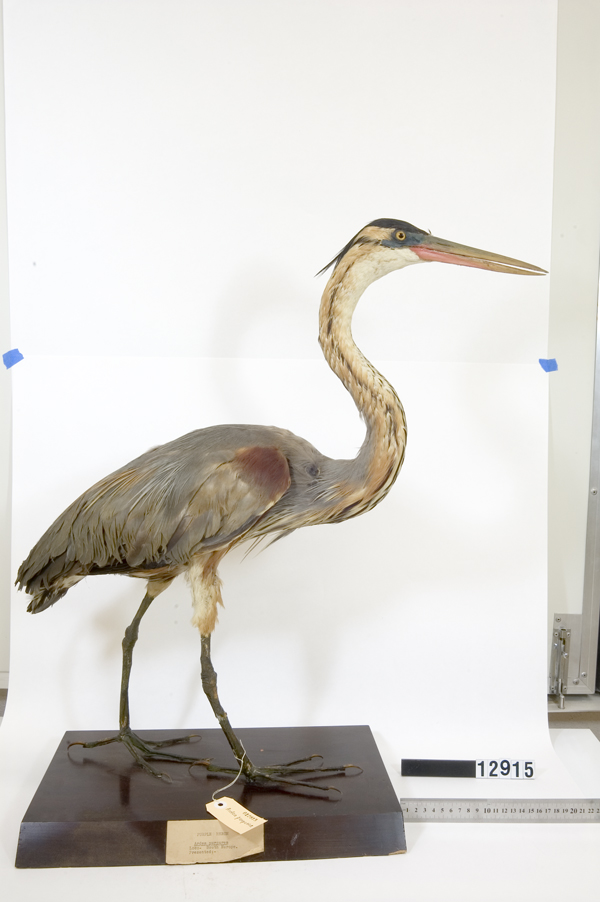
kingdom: Animalia
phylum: Chordata
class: Aves
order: Pelecaniformes
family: Ardeidae
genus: Ardea
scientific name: Ardea purpurea
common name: Purple heron
